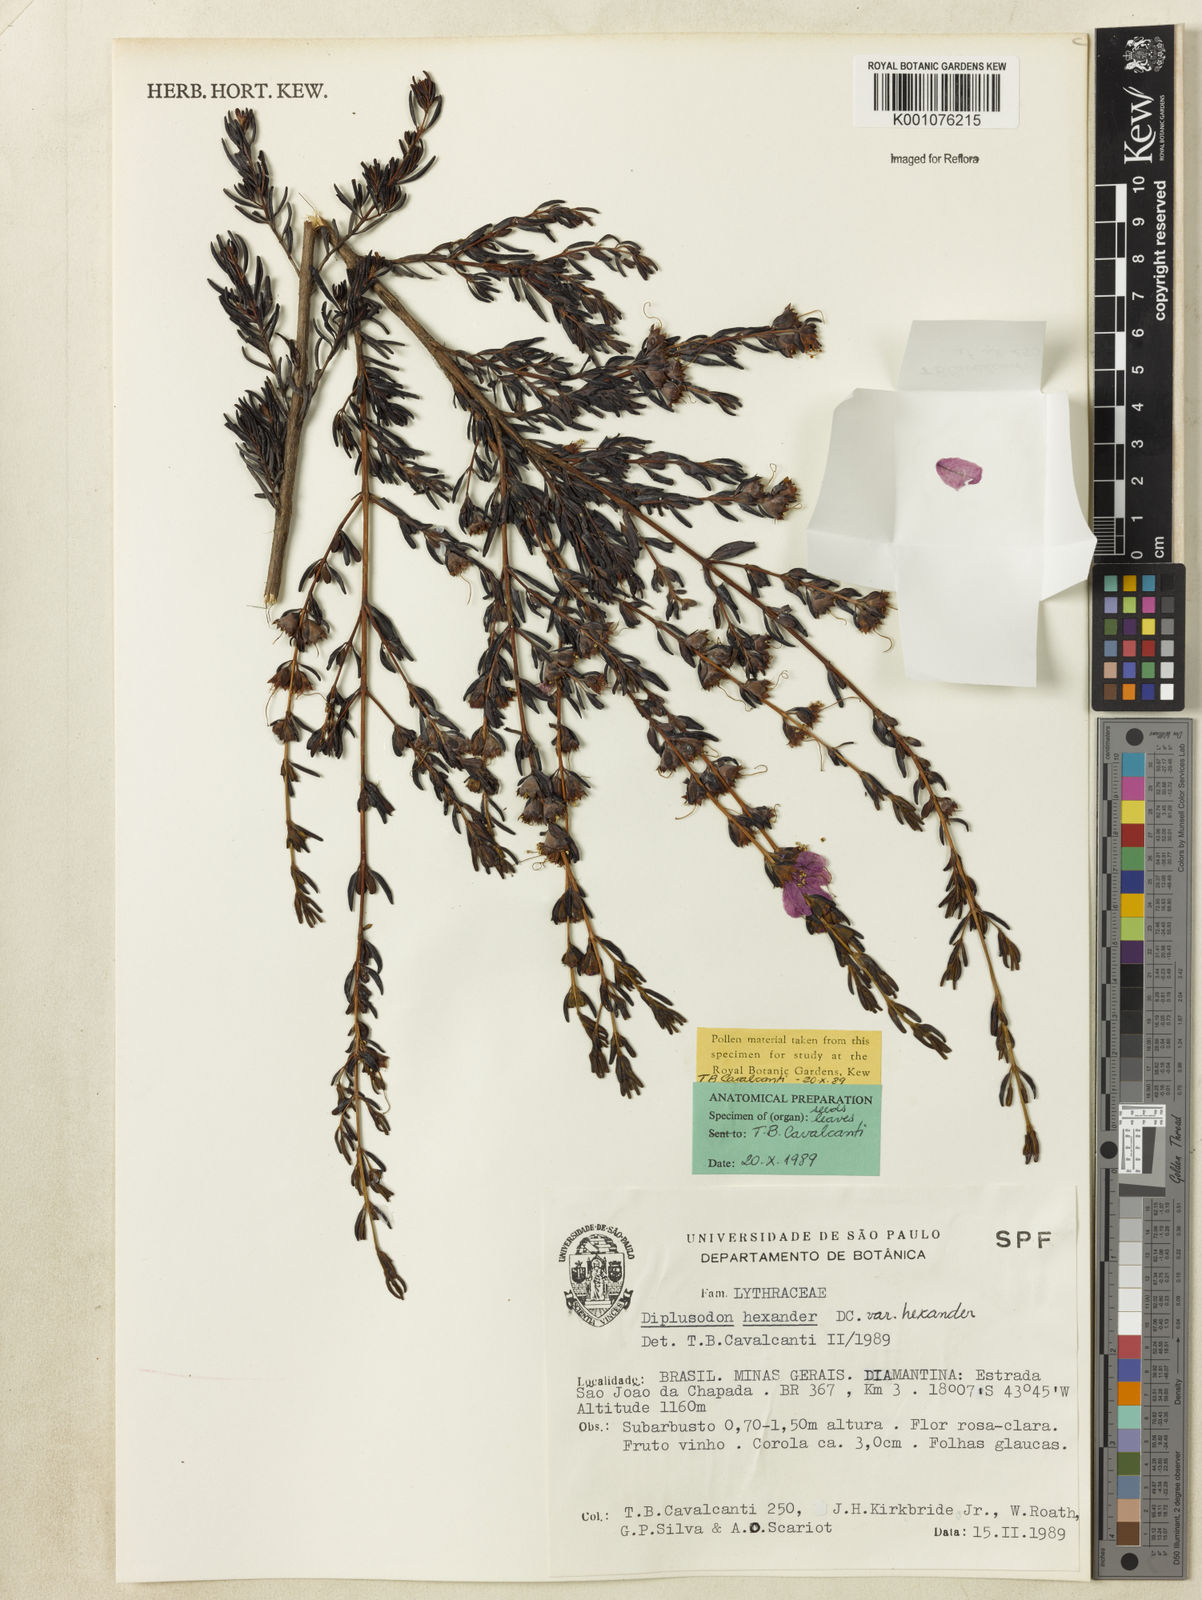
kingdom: Plantae
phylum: Tracheophyta
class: Magnoliopsida
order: Myrtales
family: Lythraceae
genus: Diplusodon
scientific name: Diplusodon hexander
